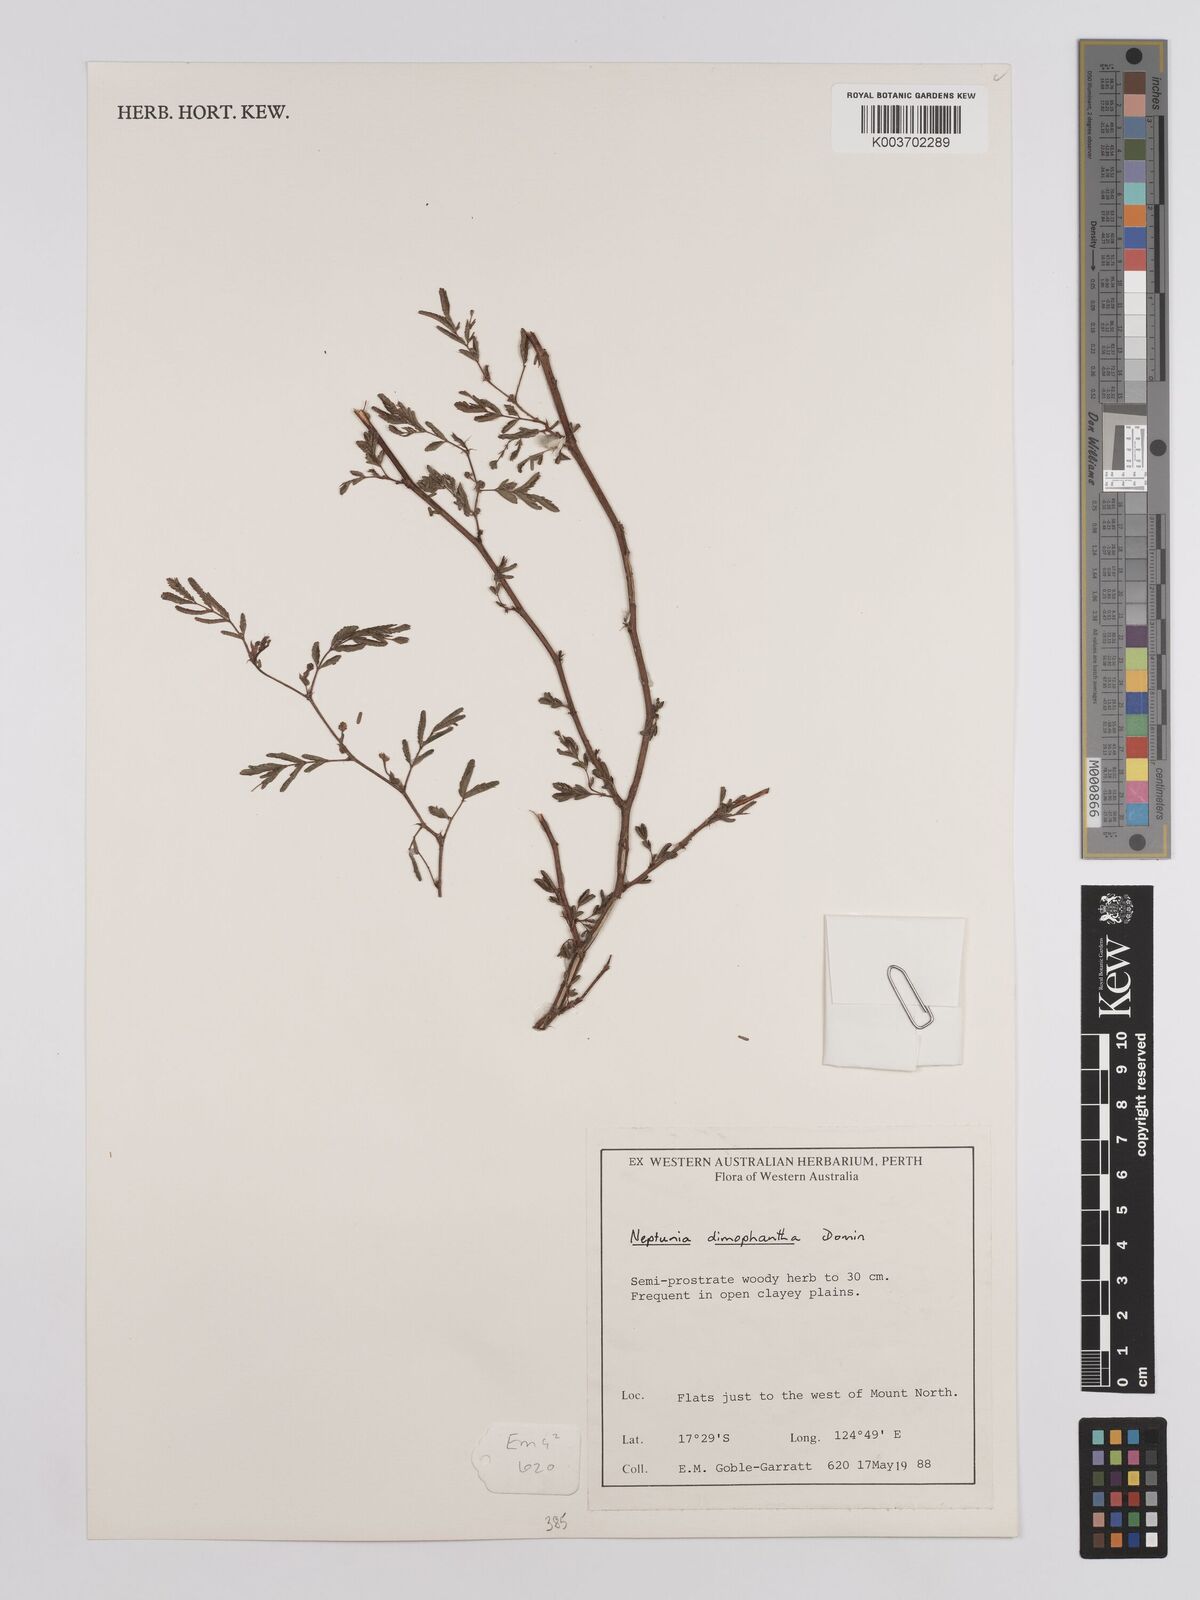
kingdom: Plantae
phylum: Tracheophyta
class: Magnoliopsida
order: Fabales
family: Fabaceae
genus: Neptunia
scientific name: Neptunia dimorphantha
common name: Sensitive-plant
